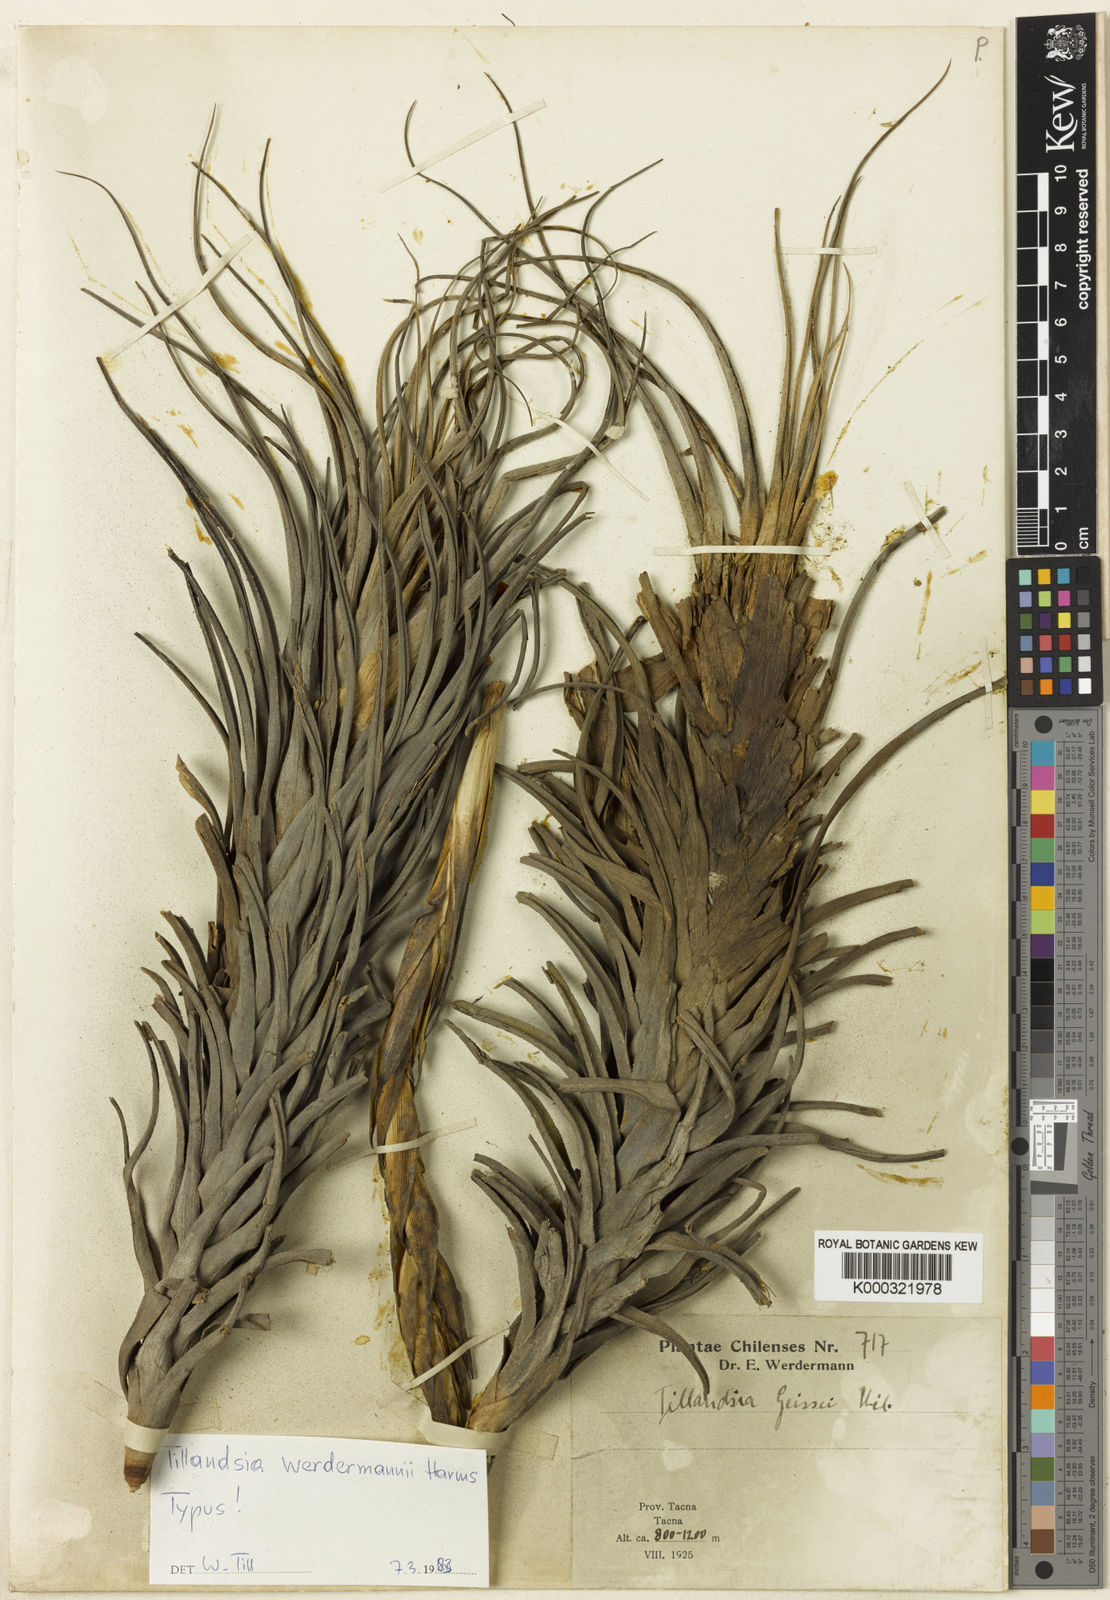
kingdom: Plantae
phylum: Tracheophyta
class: Liliopsida
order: Poales
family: Bromeliaceae
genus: Tillandsia
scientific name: Tillandsia werdermannii
